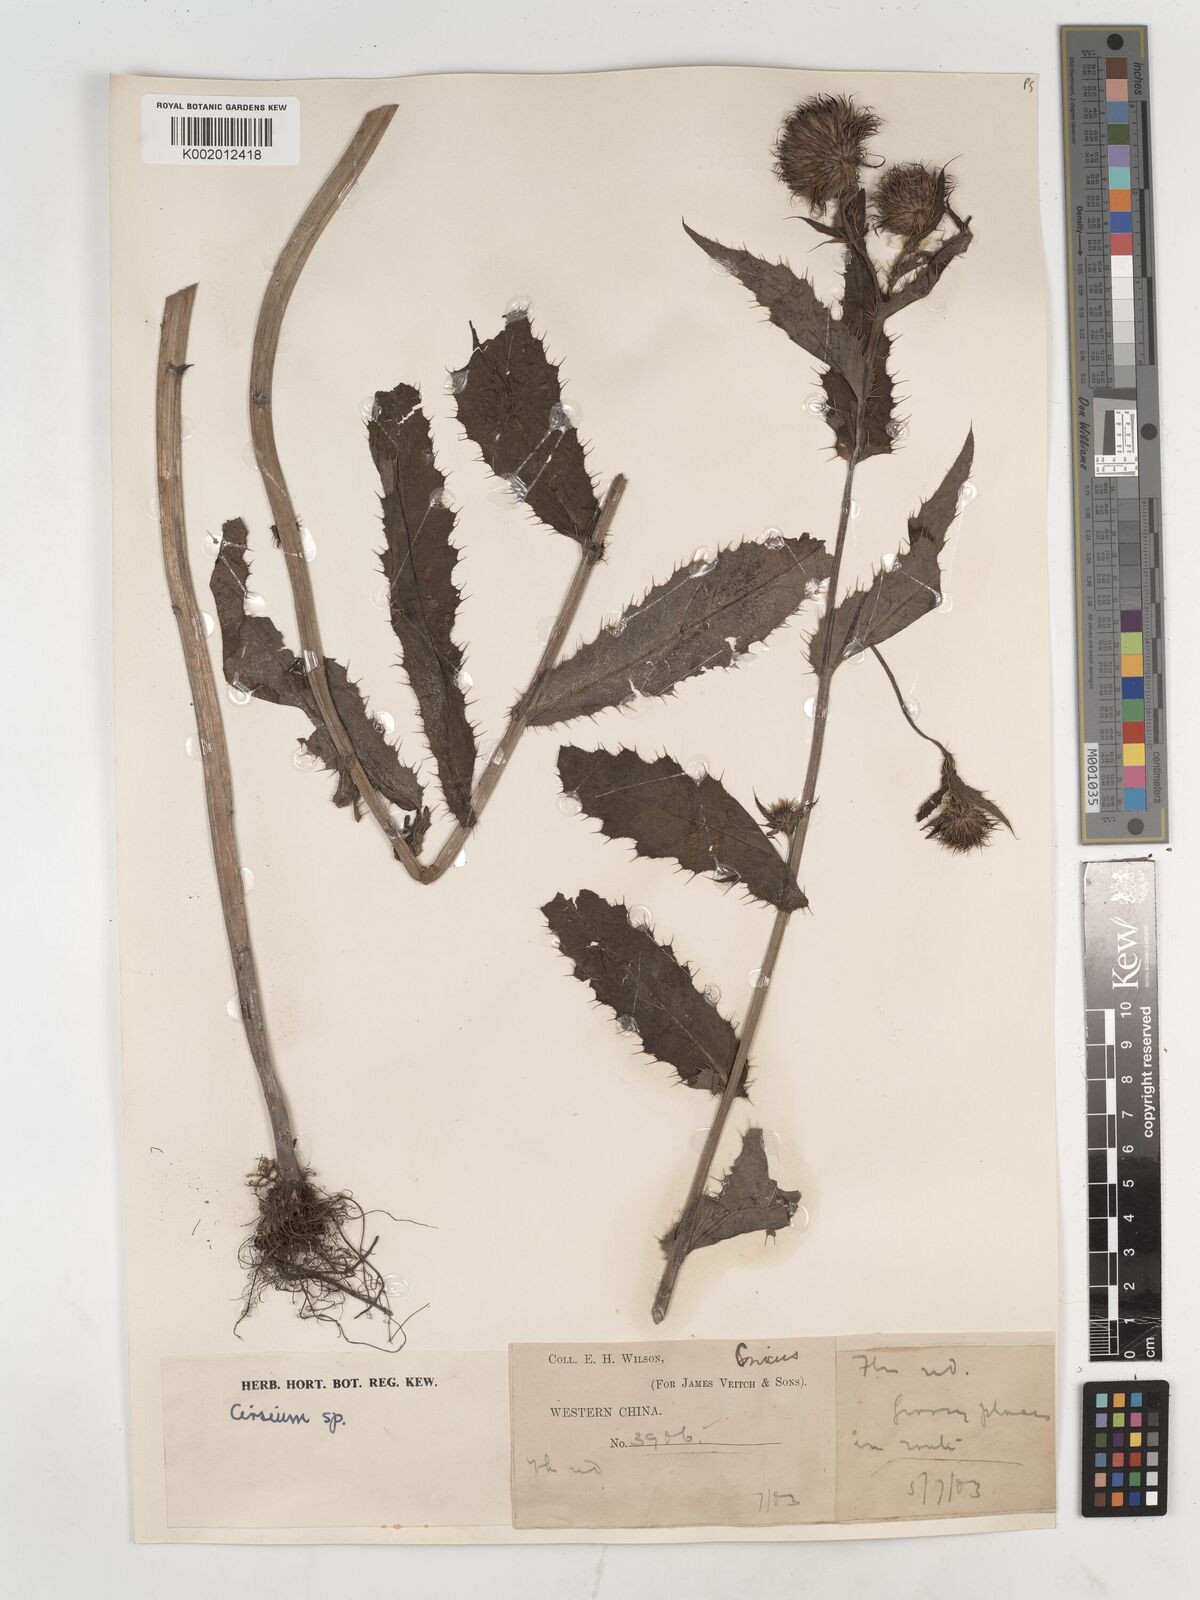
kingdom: Plantae
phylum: Tracheophyta
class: Magnoliopsida
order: Asterales
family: Asteraceae
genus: Cirsium
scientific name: Cirsium
